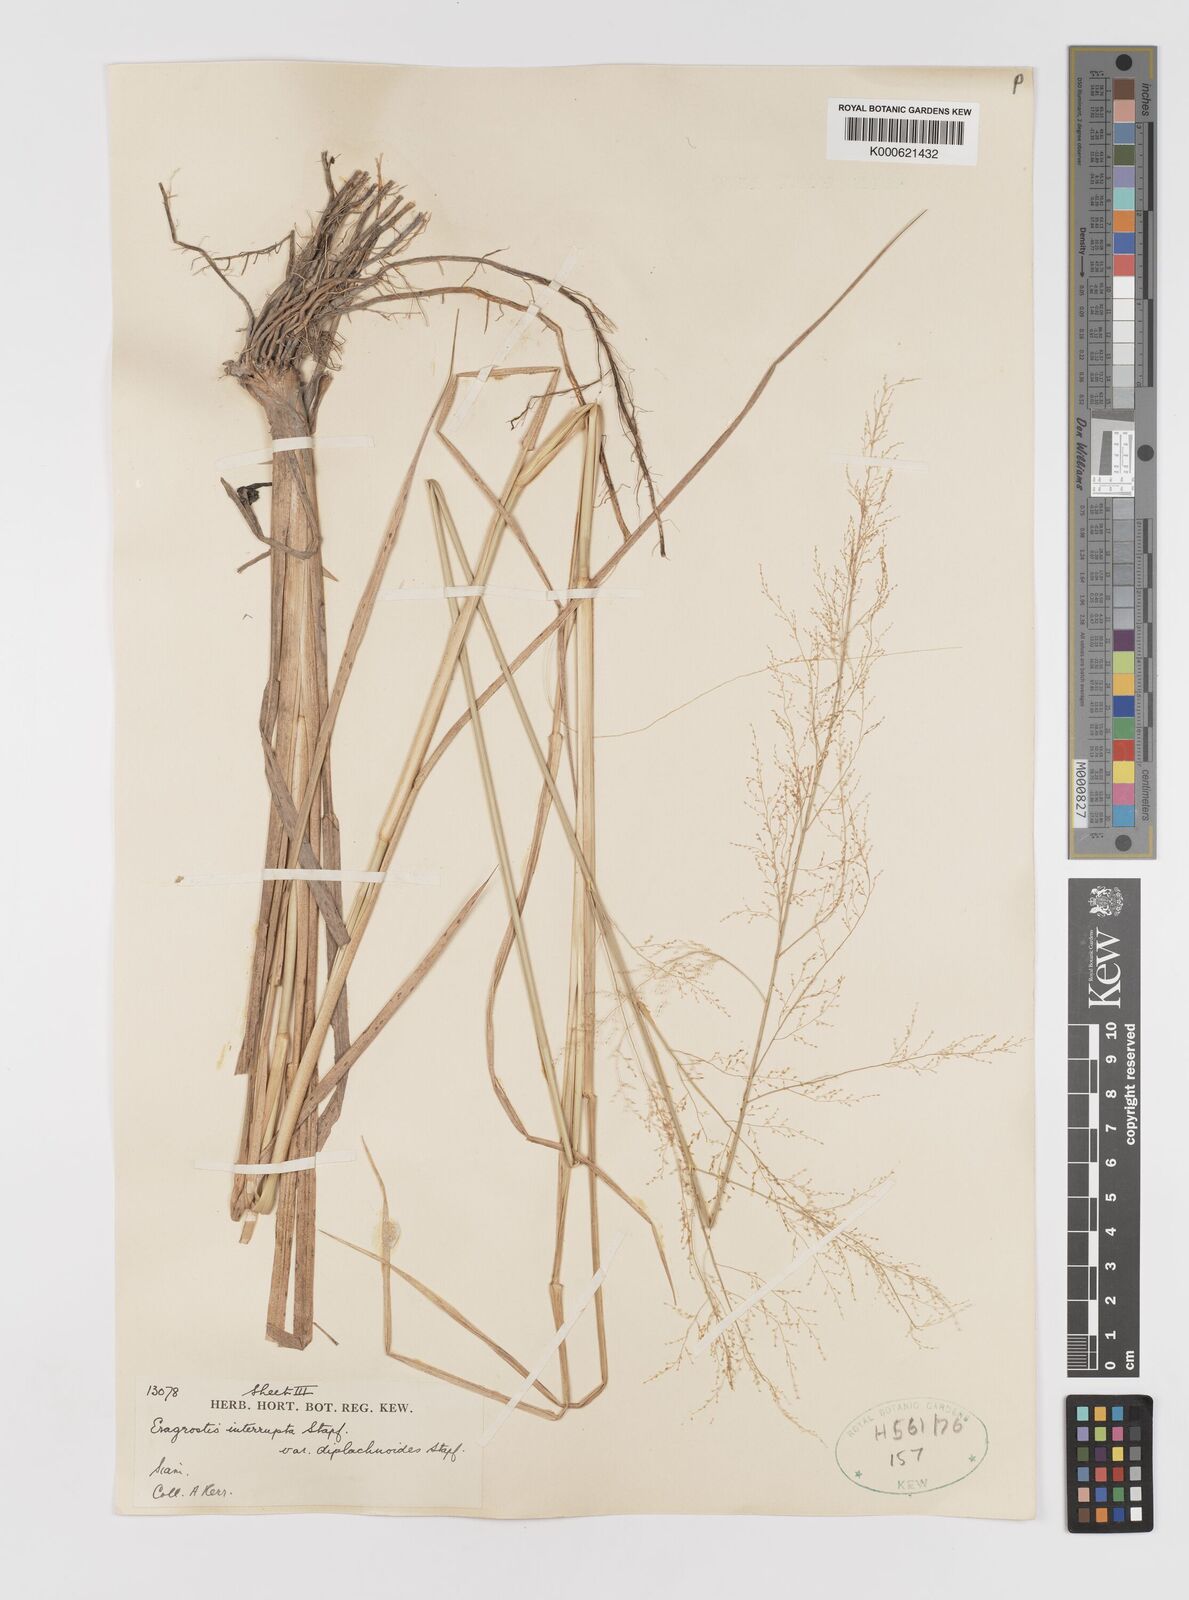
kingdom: Plantae
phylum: Tracheophyta
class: Liliopsida
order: Poales
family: Poaceae
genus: Eragrostis
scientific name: Eragrostis japonica
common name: Pond lovegrass
